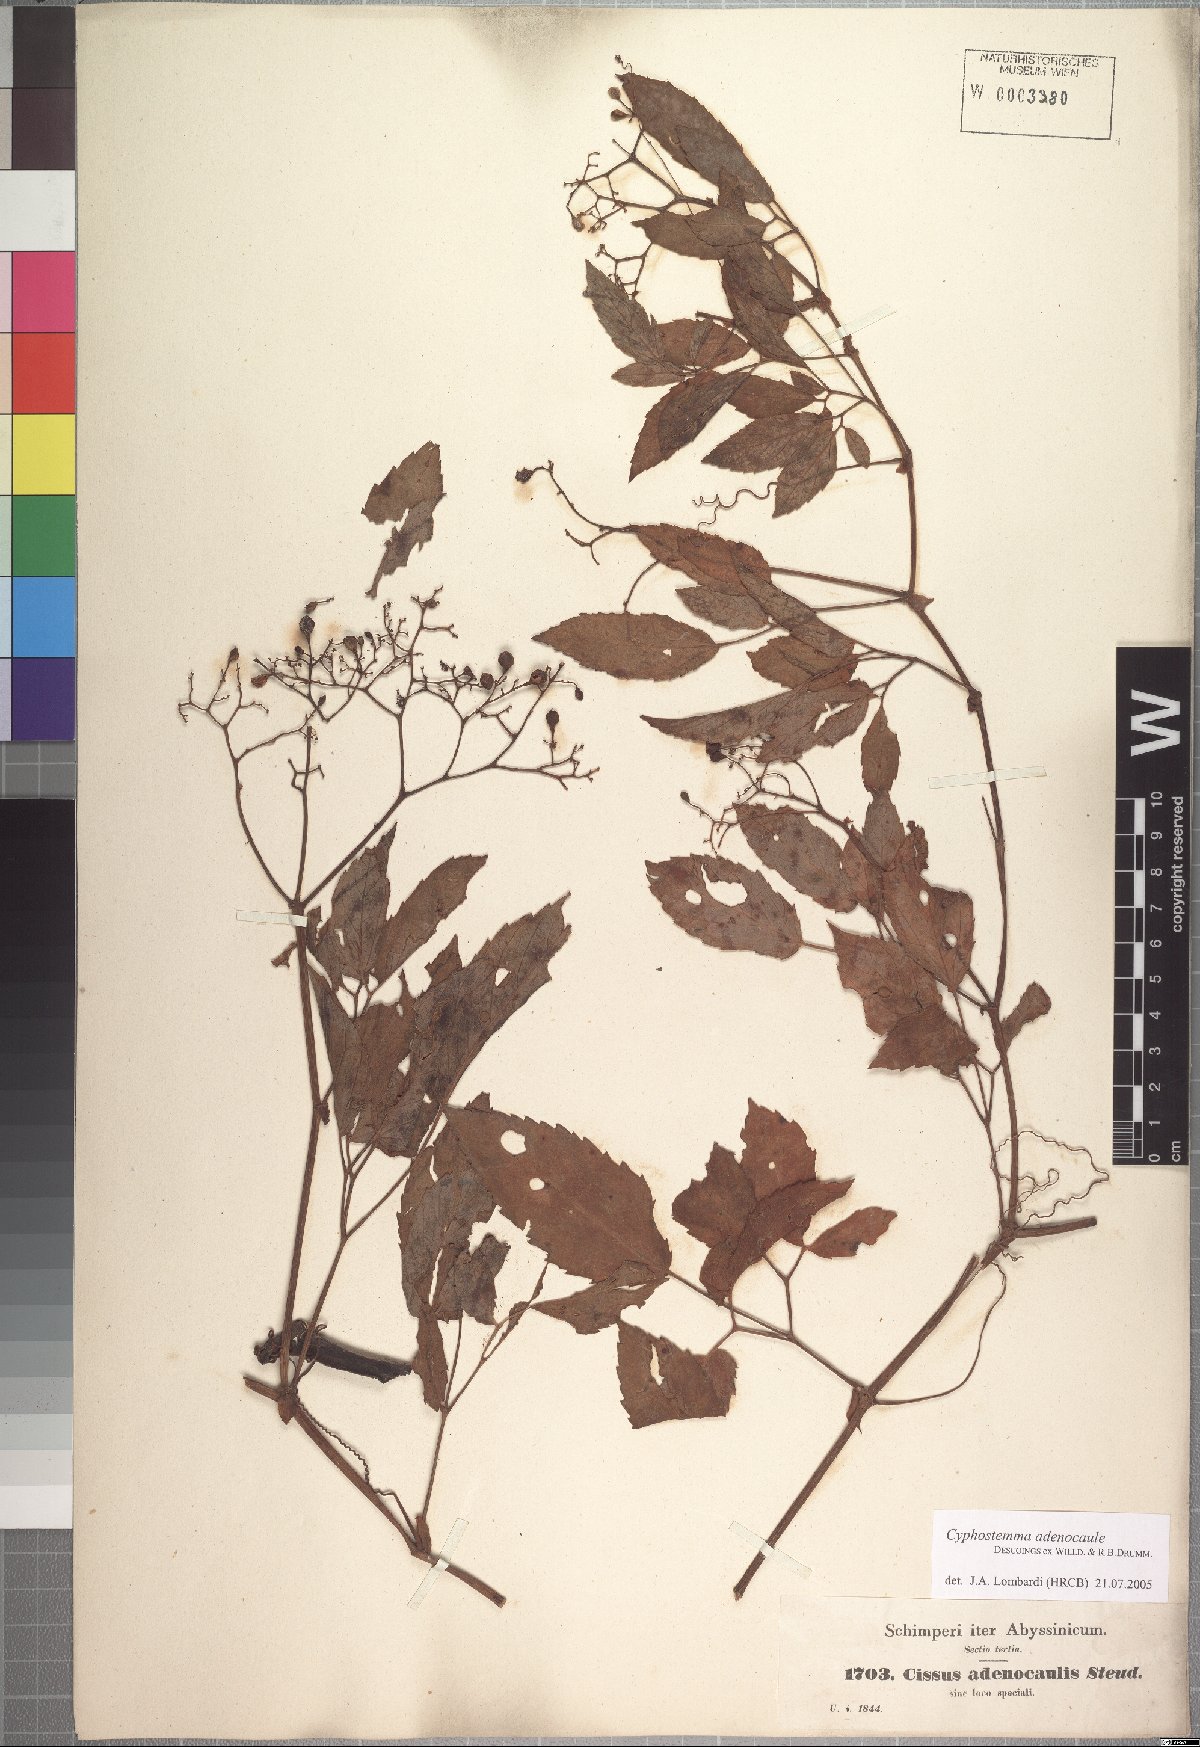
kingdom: Plantae
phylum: Tracheophyta
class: Magnoliopsida
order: Vitales
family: Vitaceae
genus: Cyphostemma
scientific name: Cyphostemma adenocaule
